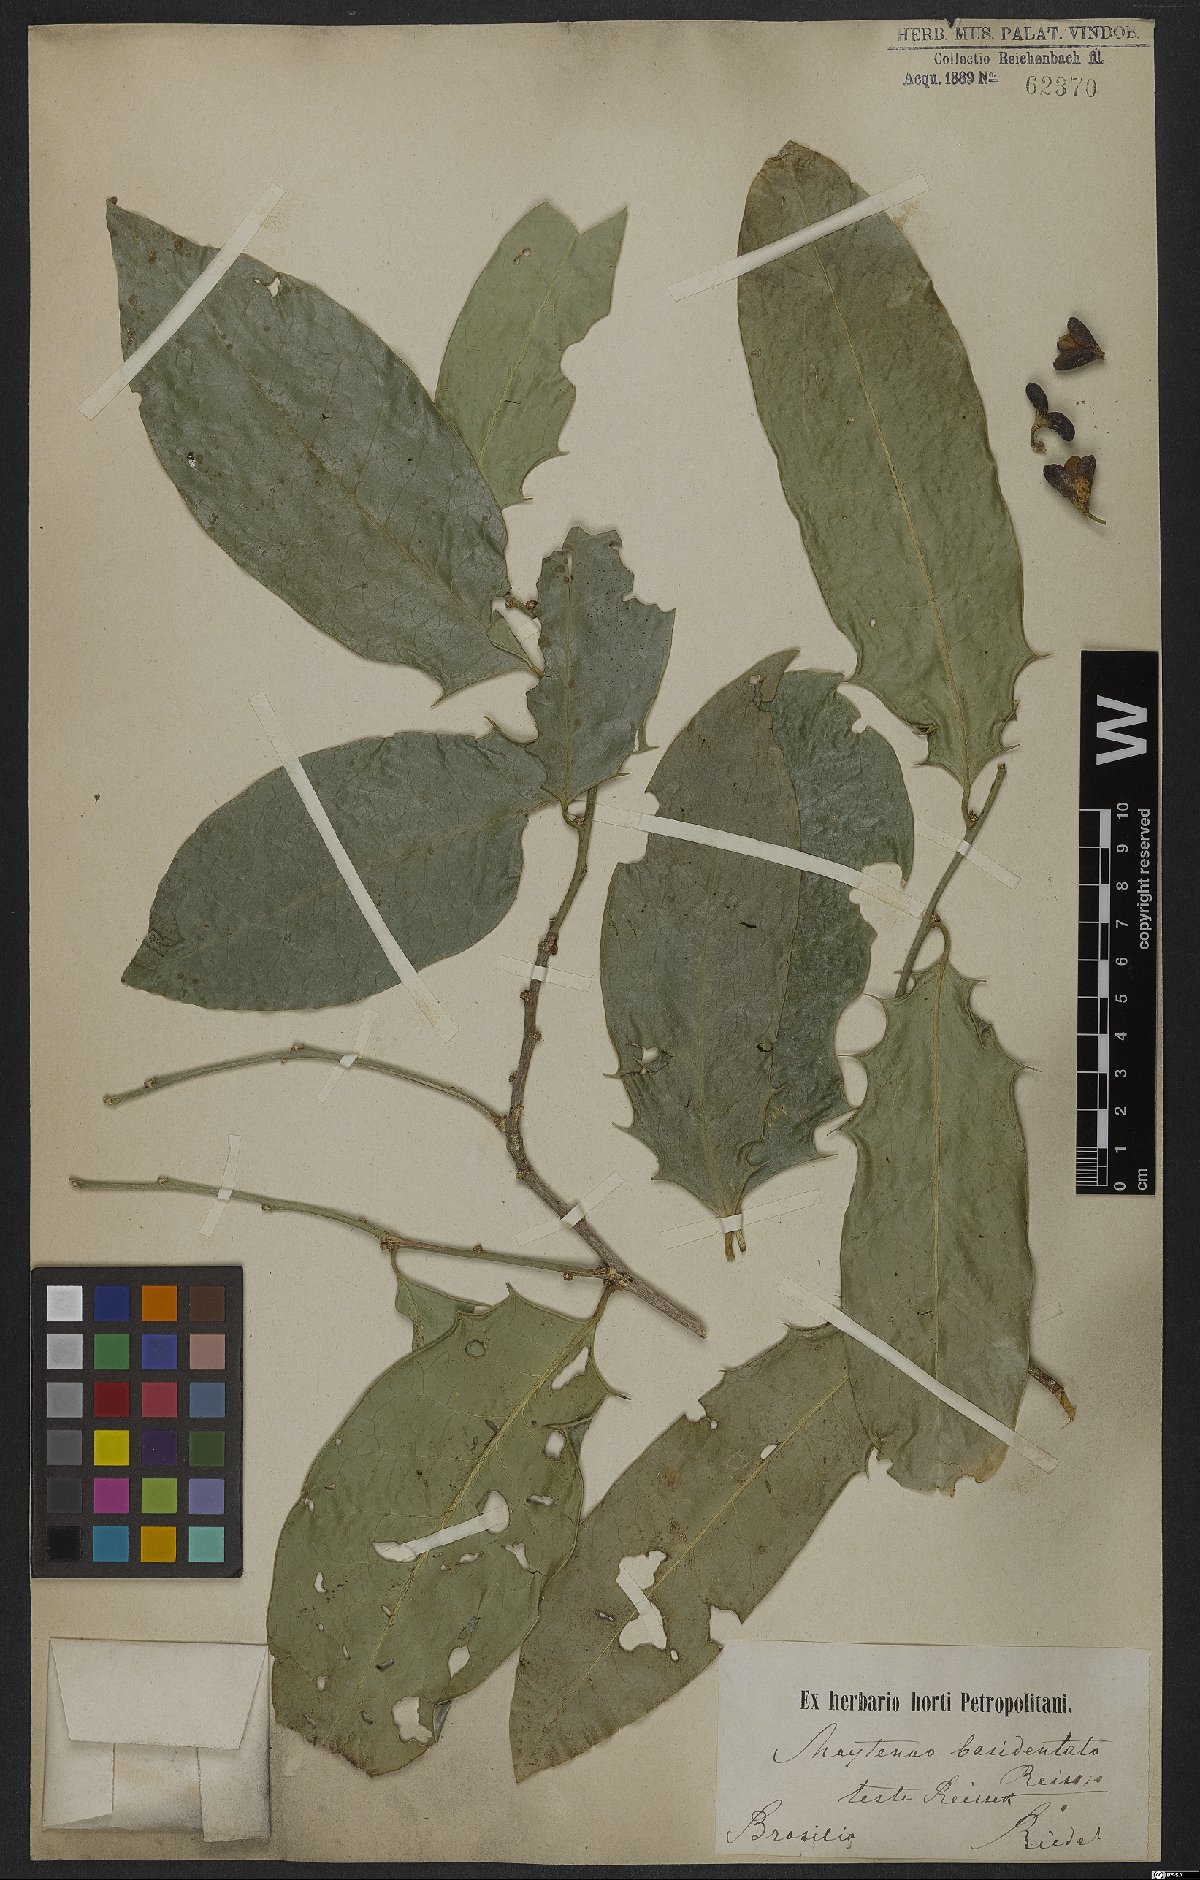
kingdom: Plantae
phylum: Tracheophyta
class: Magnoliopsida
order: Celastrales
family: Celastraceae
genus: Monteverdia
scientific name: Monteverdia basidentata
